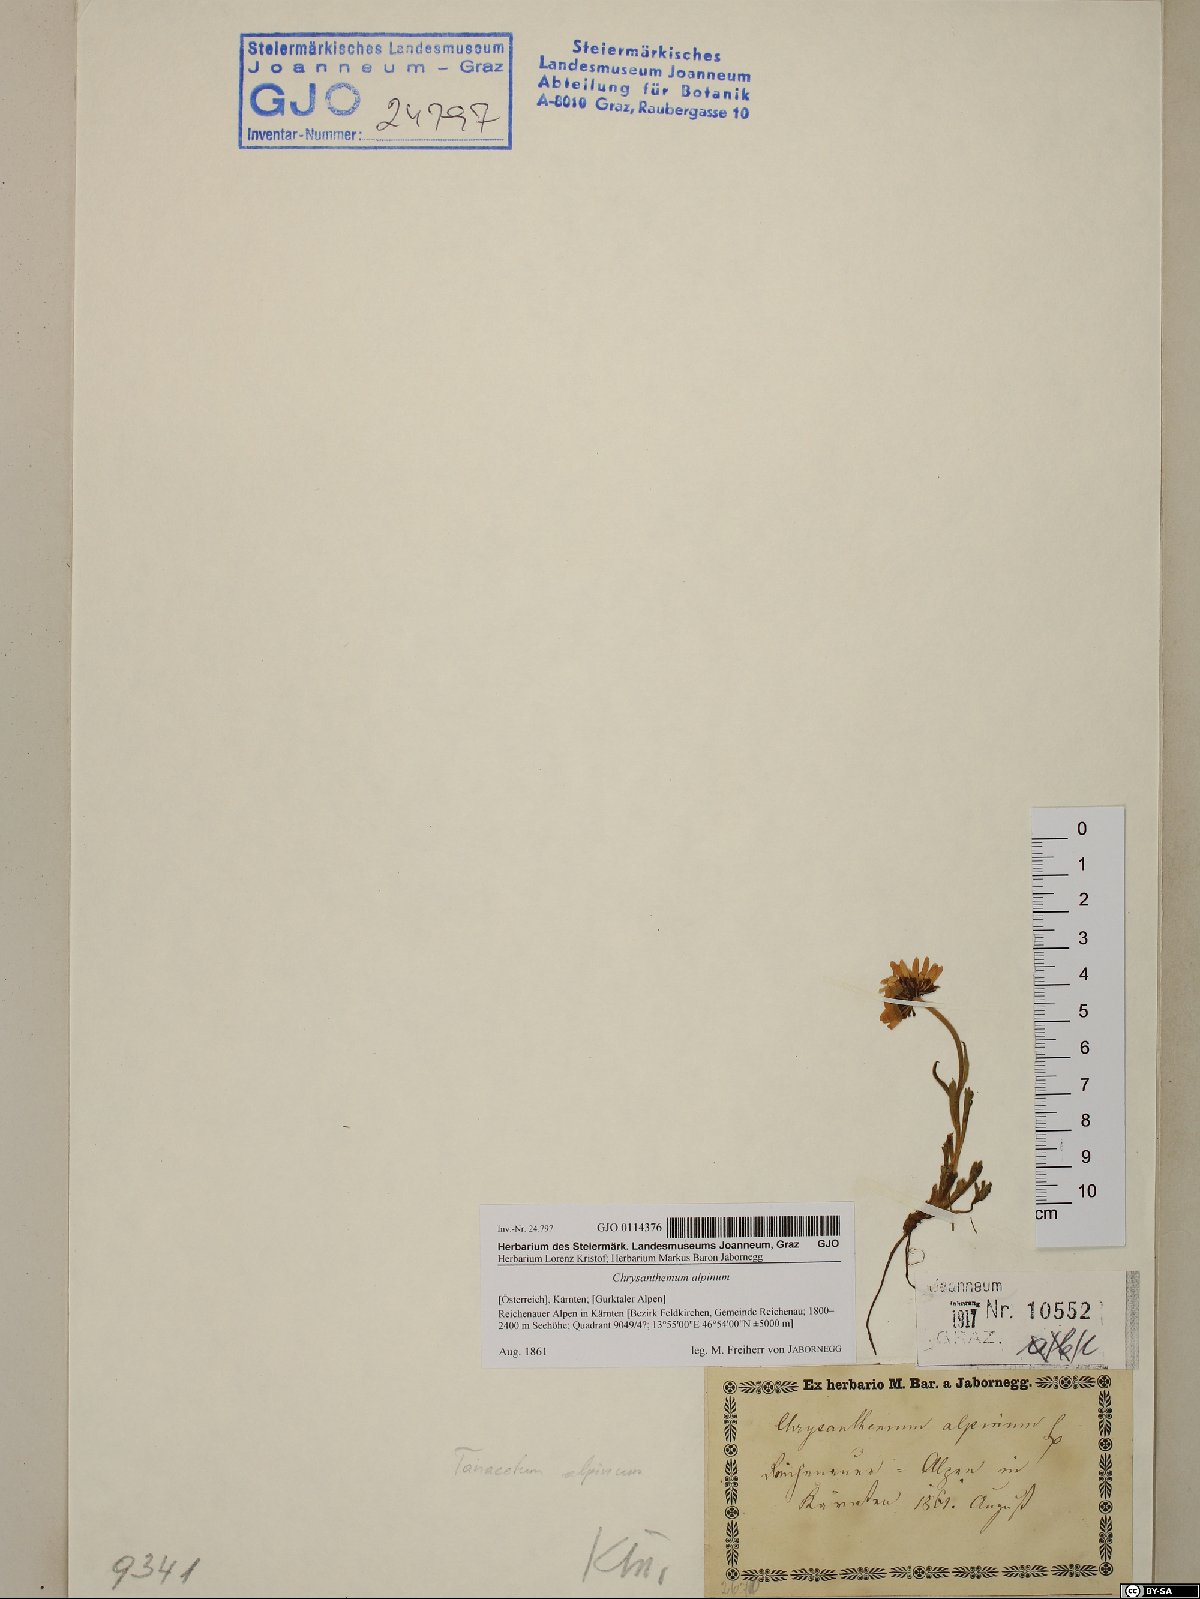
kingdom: Plantae
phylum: Tracheophyta
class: Magnoliopsida
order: Asterales
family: Asteraceae
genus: Leucanthemopsis
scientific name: Leucanthemopsis alpina
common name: Alpine moon daisy
